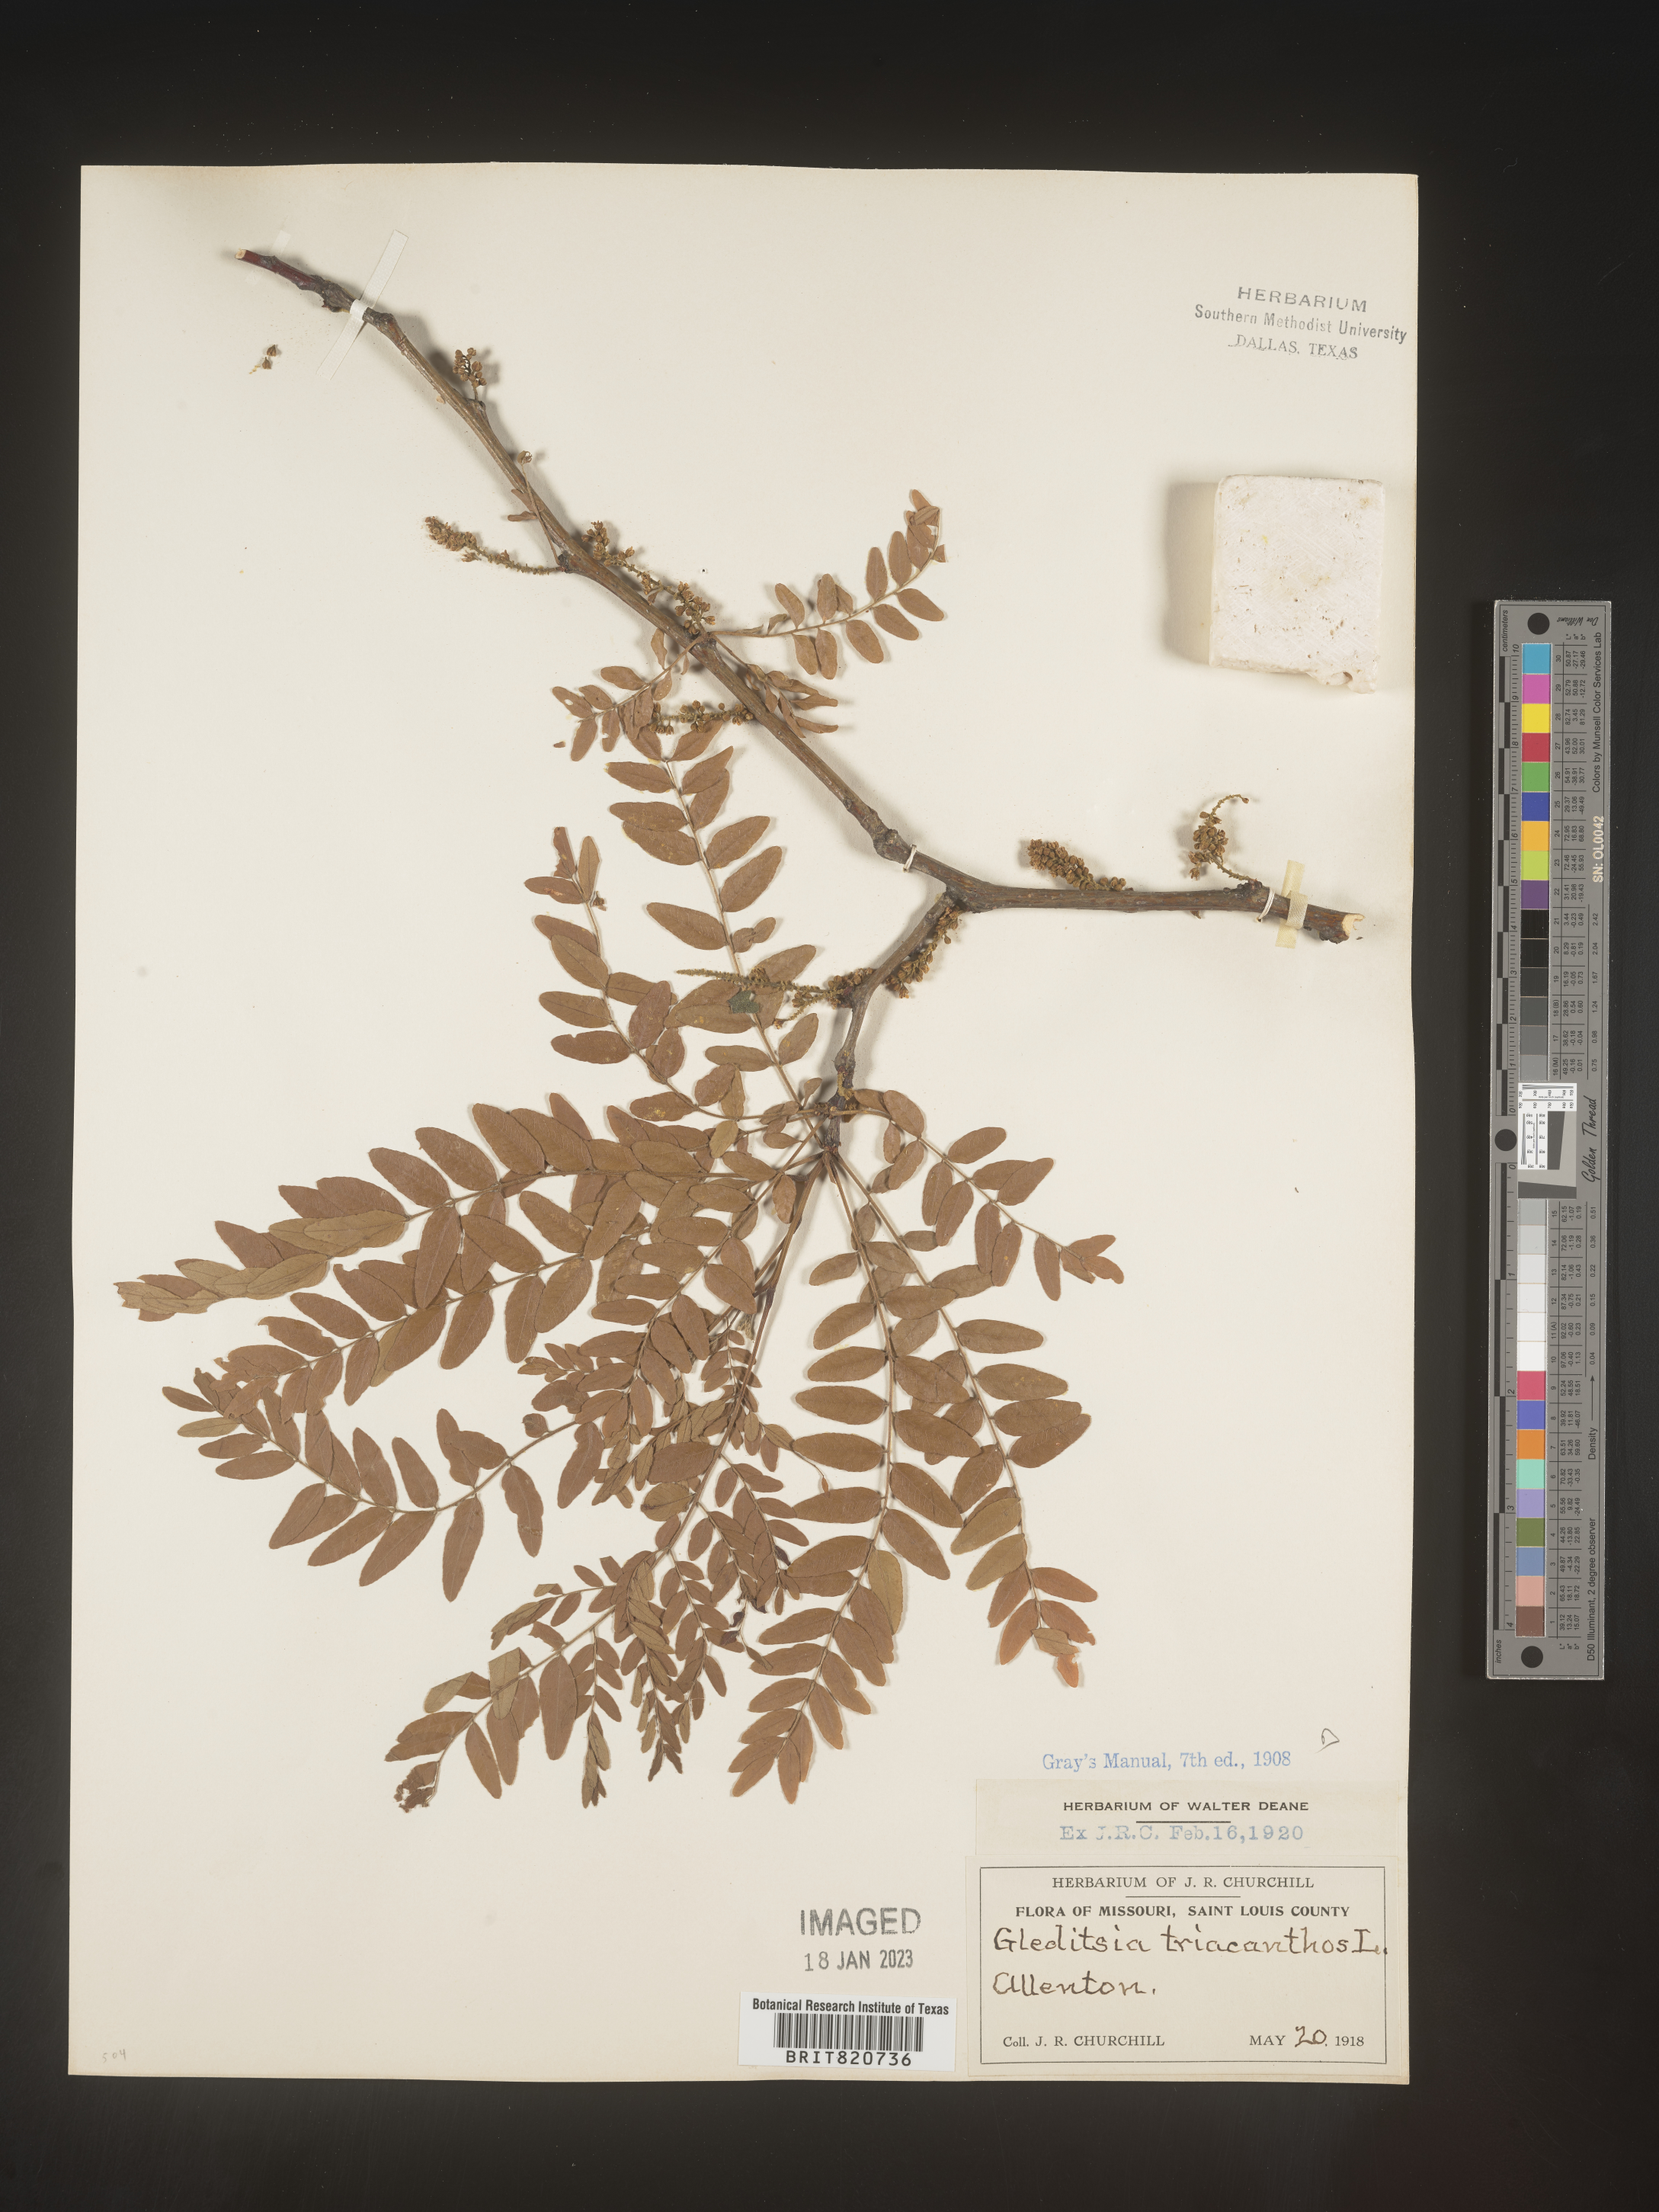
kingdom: Plantae
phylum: Tracheophyta
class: Magnoliopsida
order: Fabales
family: Fabaceae
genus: Gleditsia
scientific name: Gleditsia triacanthos
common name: Common honeylocust
